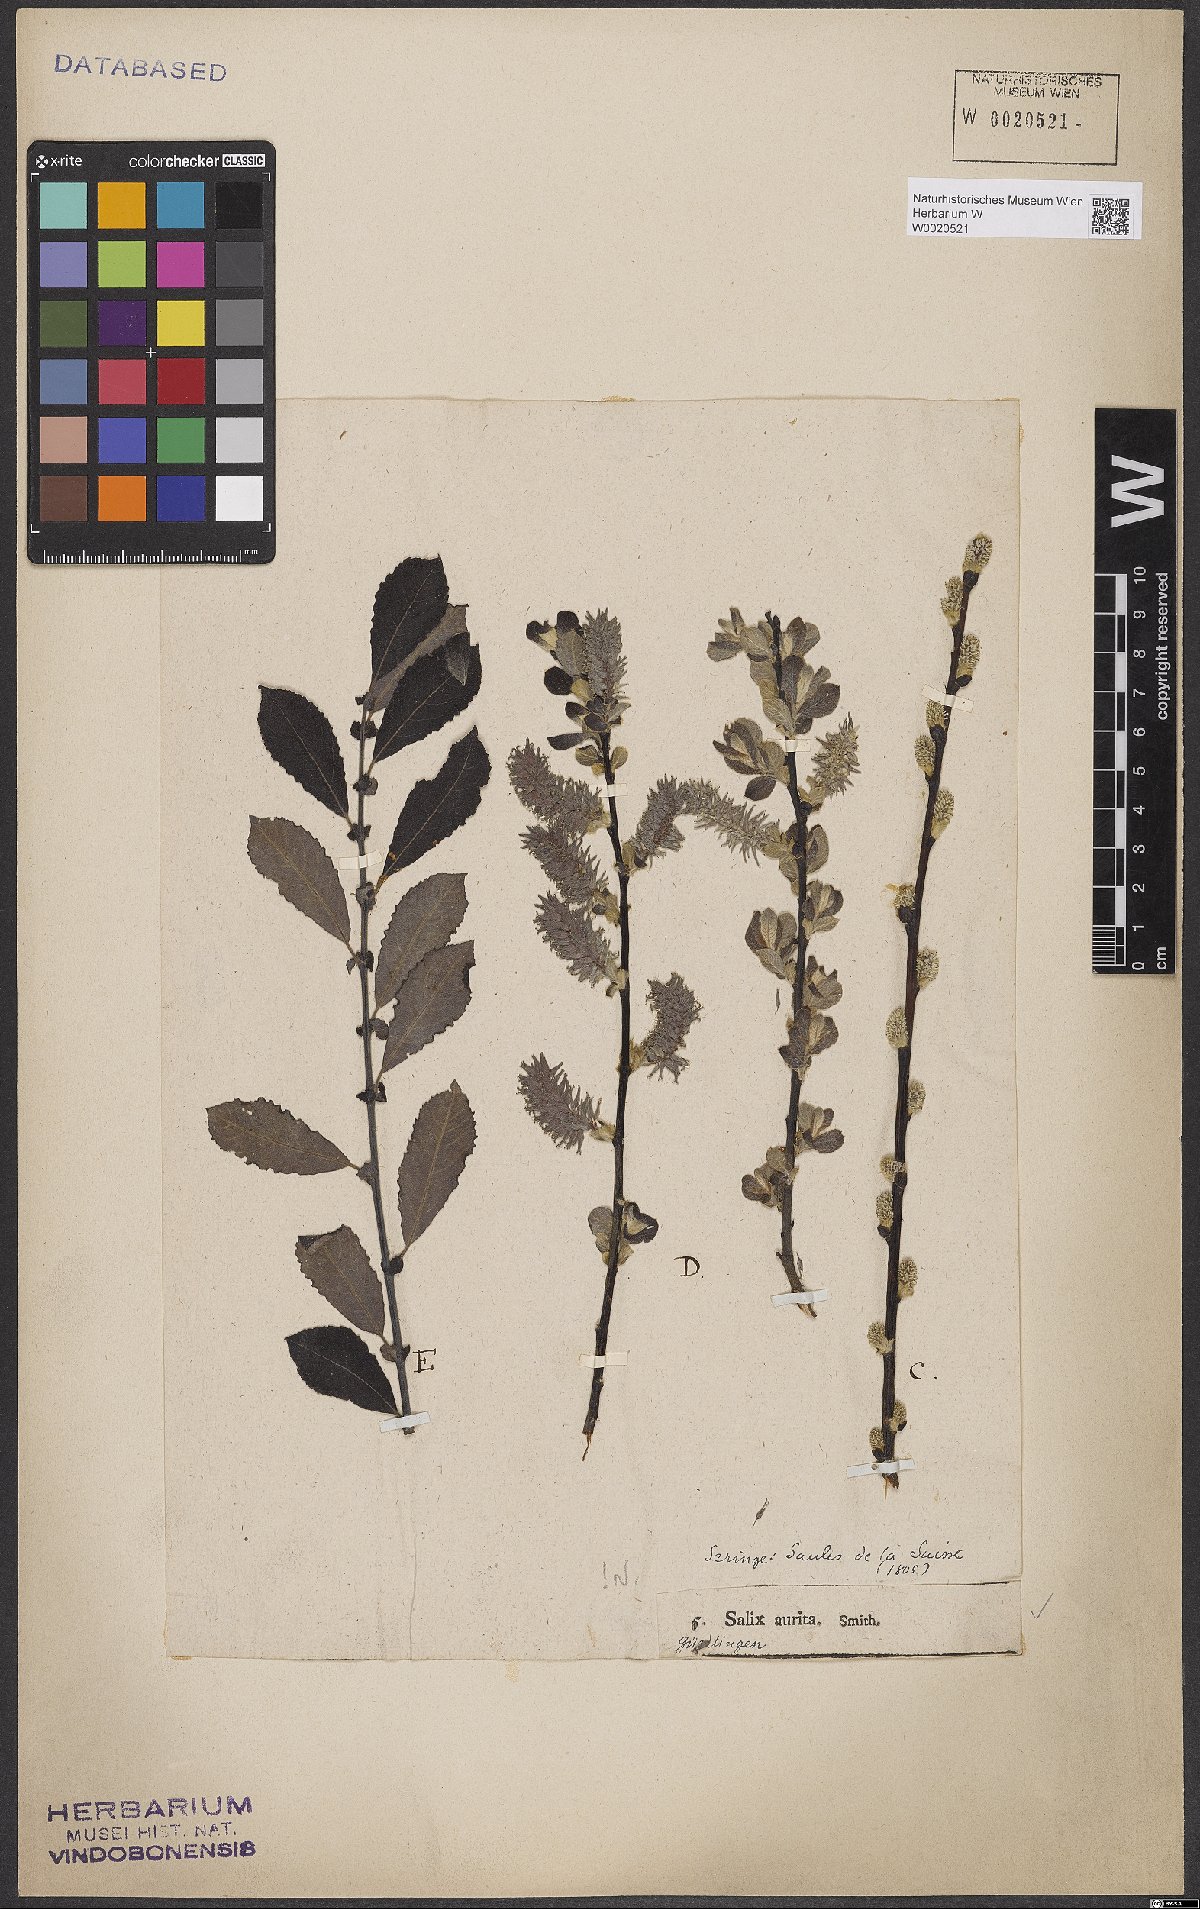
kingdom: Plantae
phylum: Tracheophyta
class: Magnoliopsida
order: Malpighiales
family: Salicaceae
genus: Salix
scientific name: Salix aurita
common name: Eared willow
